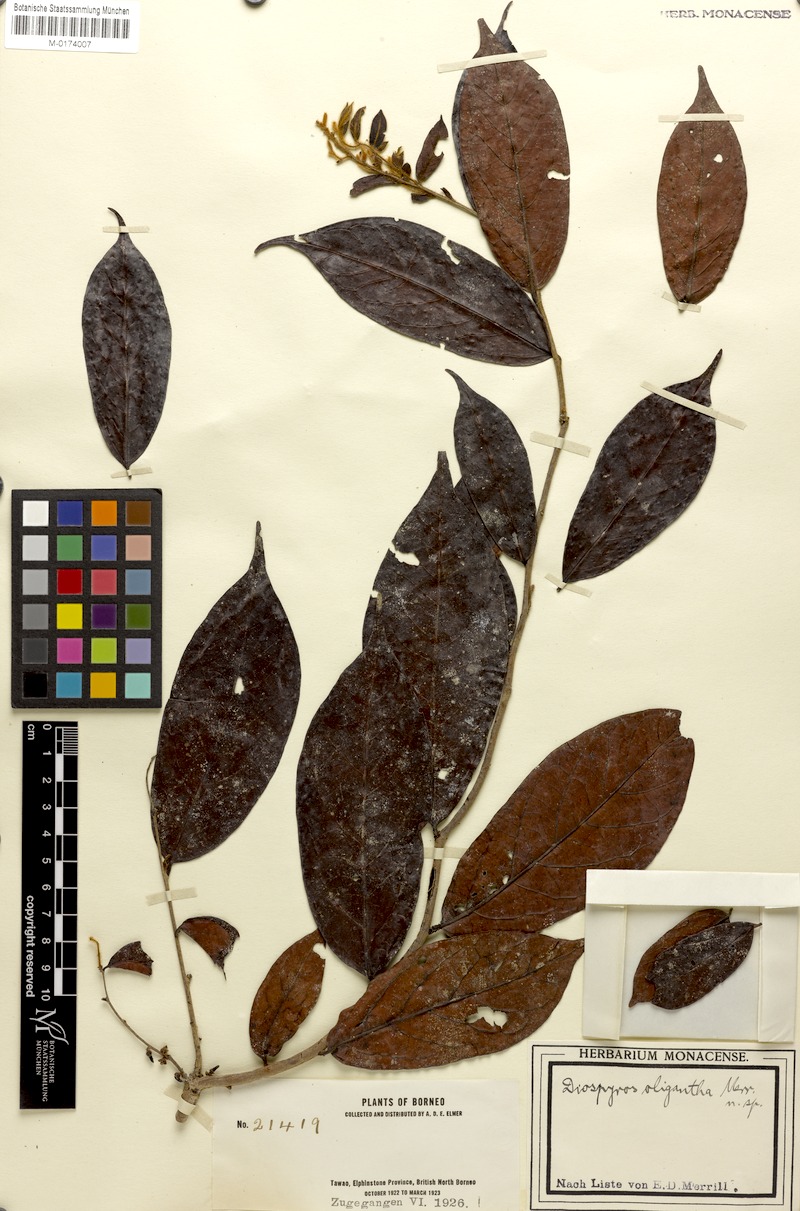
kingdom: Plantae
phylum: Tracheophyta
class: Magnoliopsida
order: Ericales
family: Ebenaceae
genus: Diospyros
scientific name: Diospyros oligantha
